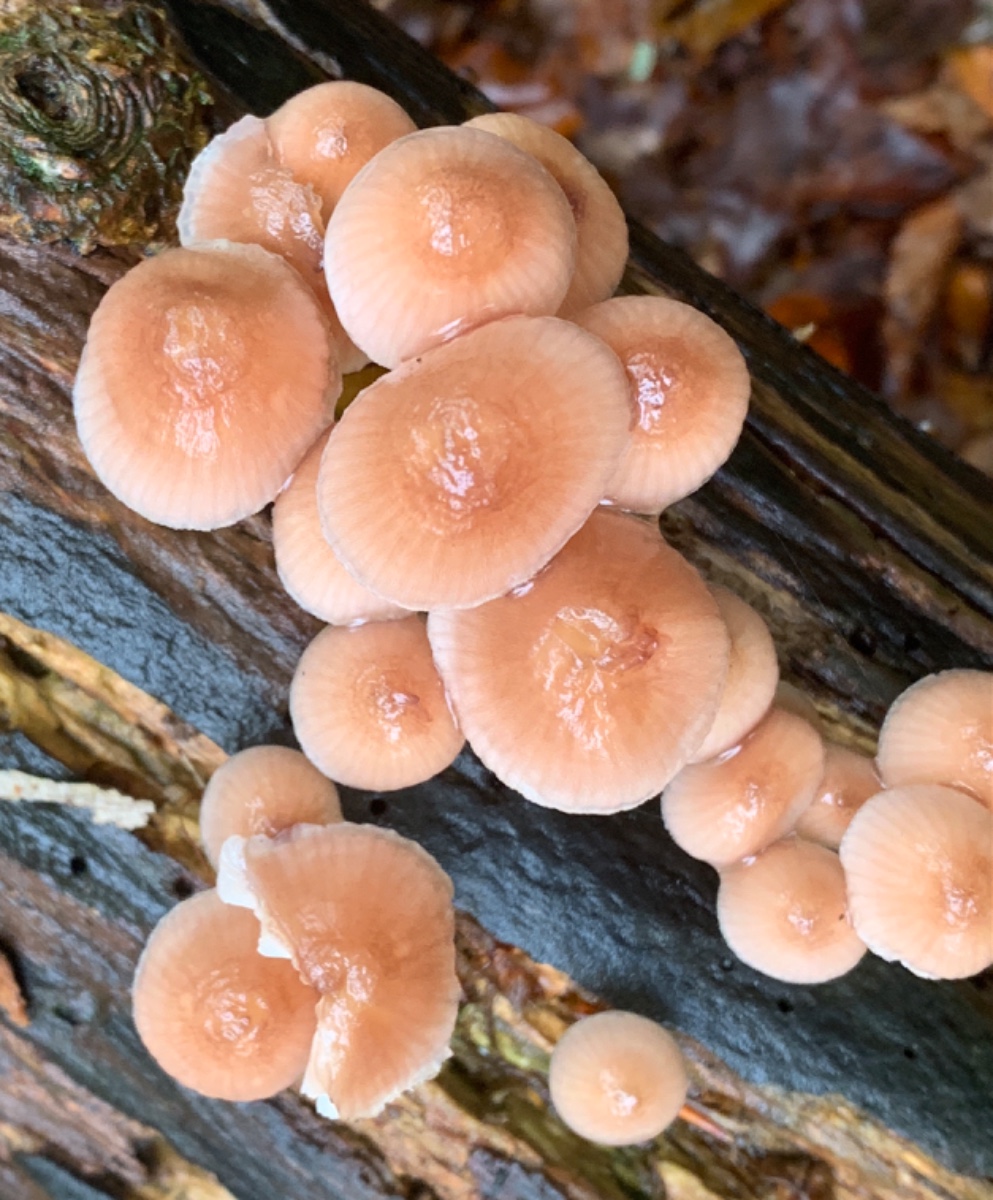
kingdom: Fungi
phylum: Basidiomycota
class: Agaricomycetes
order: Agaricales
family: Mycenaceae
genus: Mycena
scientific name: Mycena renati
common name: smuk huesvamp
